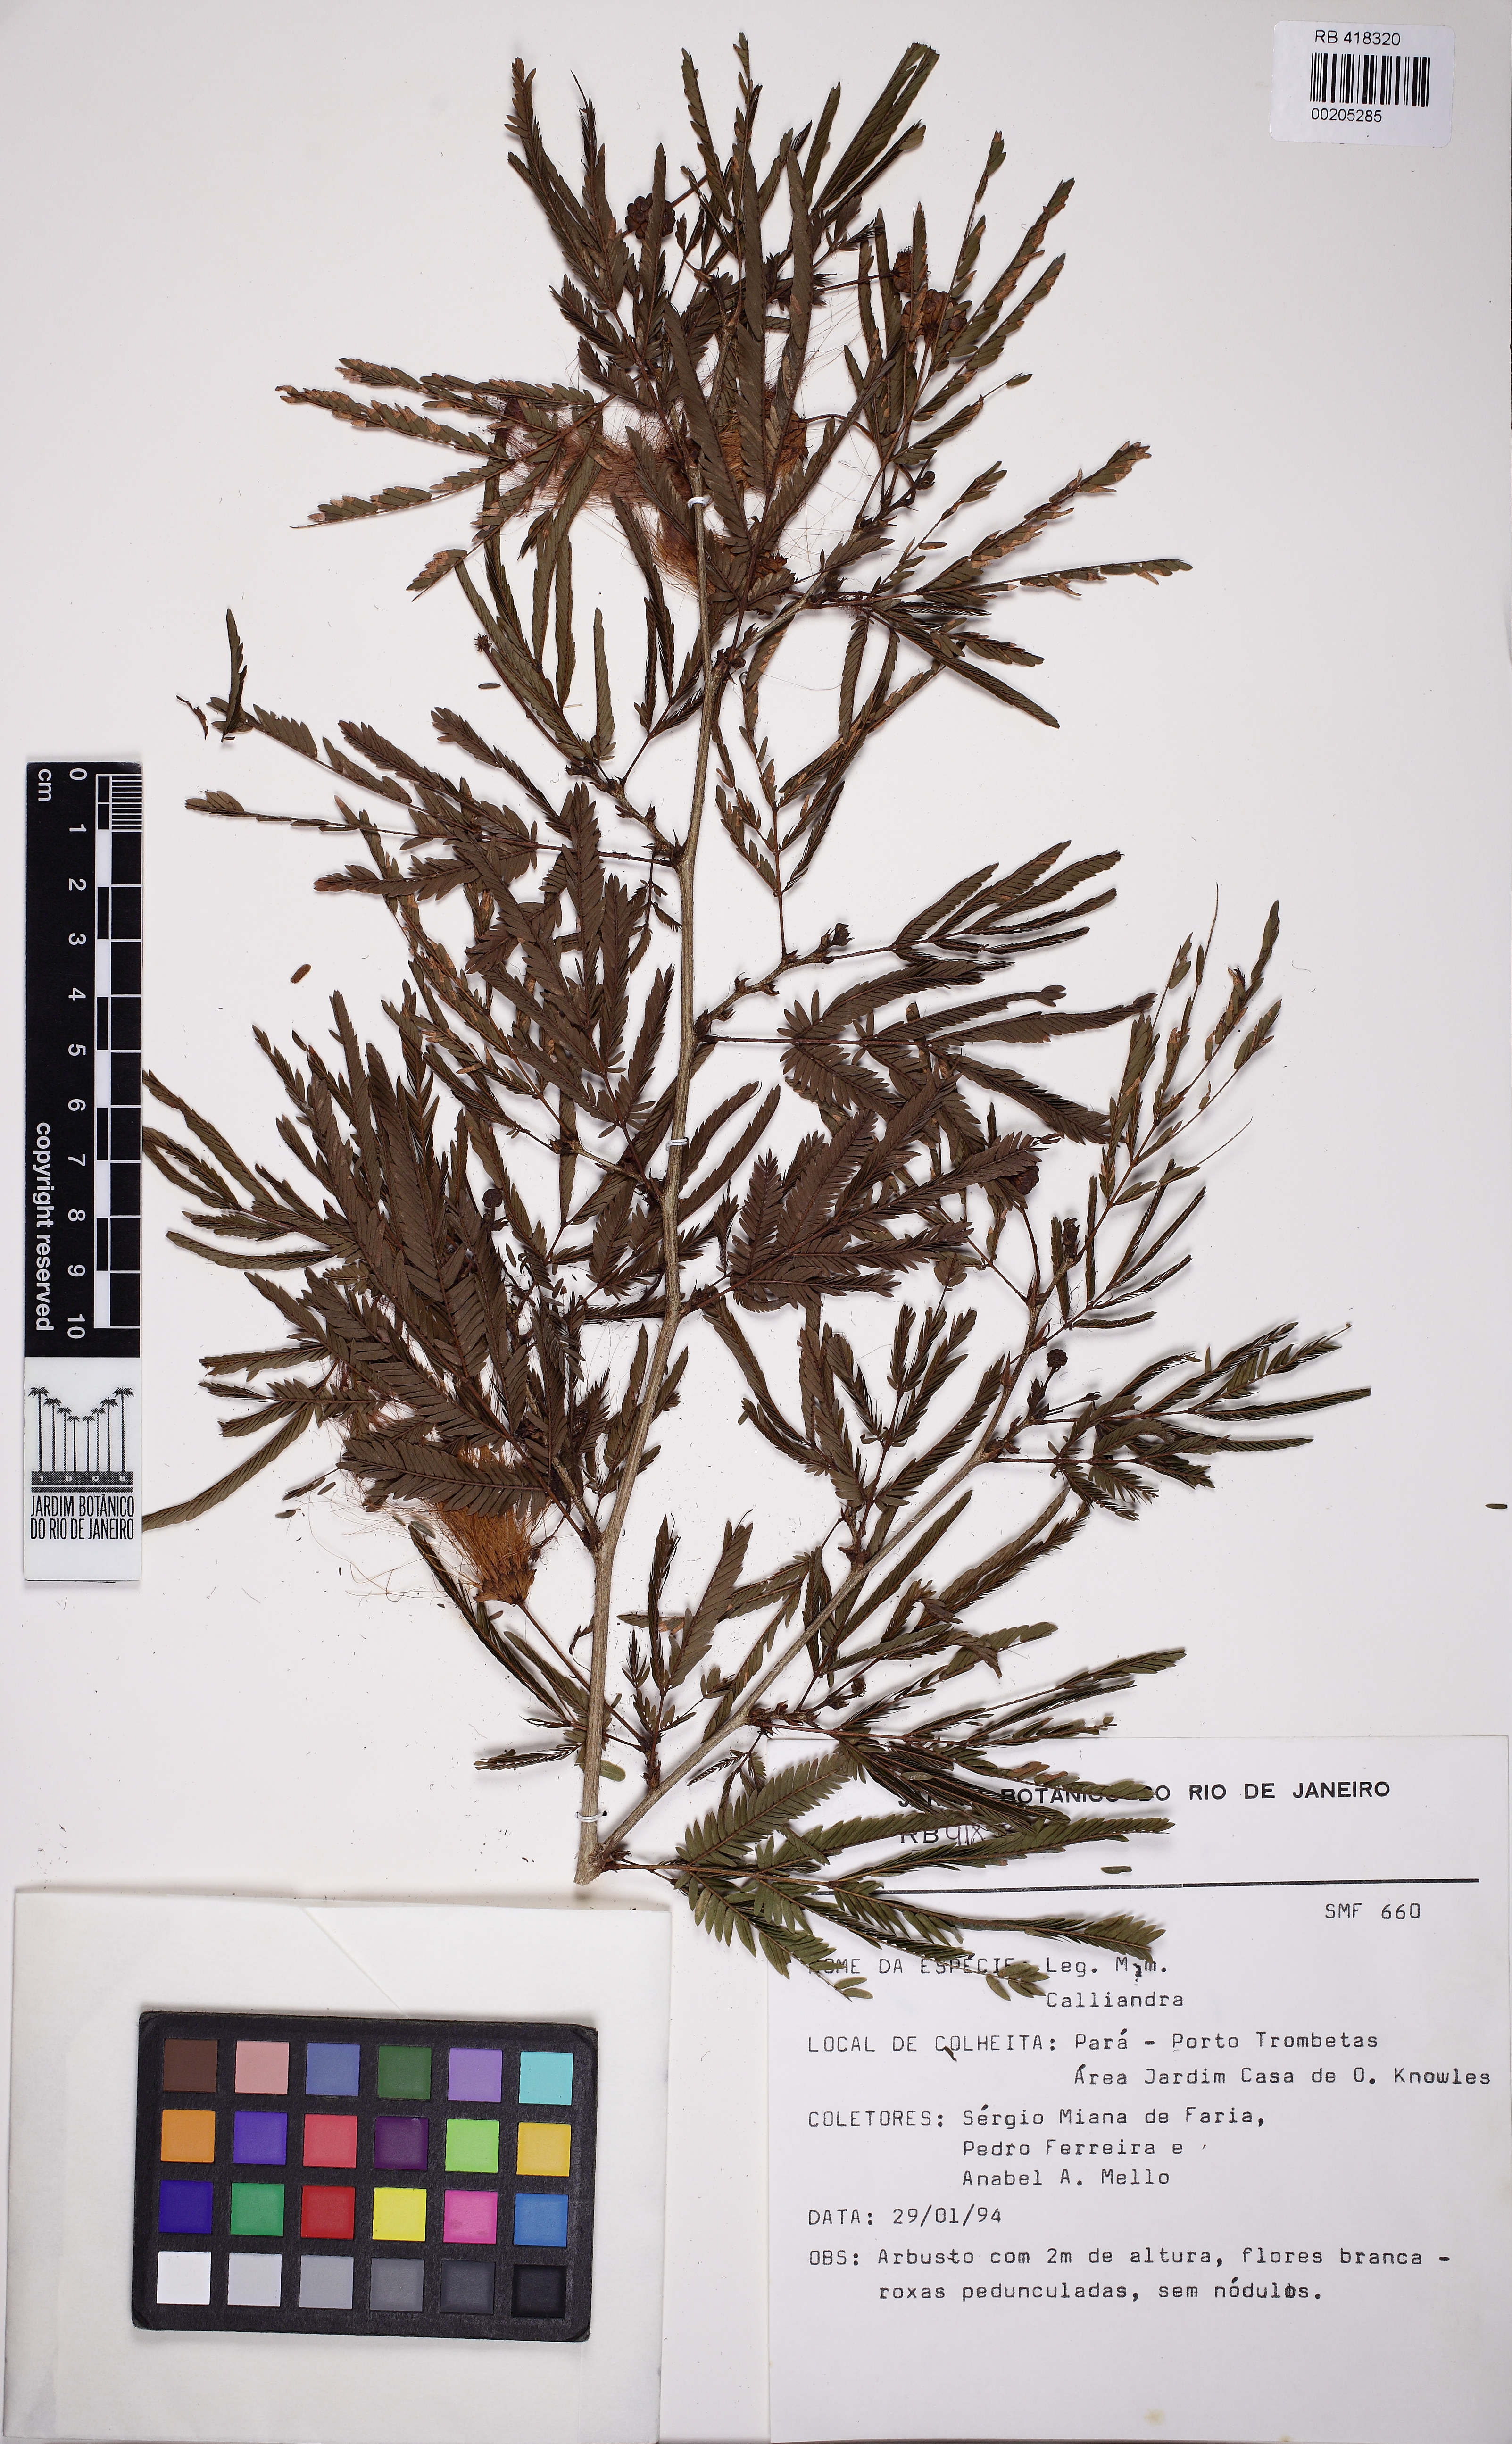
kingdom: Plantae
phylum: Tracheophyta
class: Magnoliopsida
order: Fabales
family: Fabaceae
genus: Calliandra
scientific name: Calliandra
